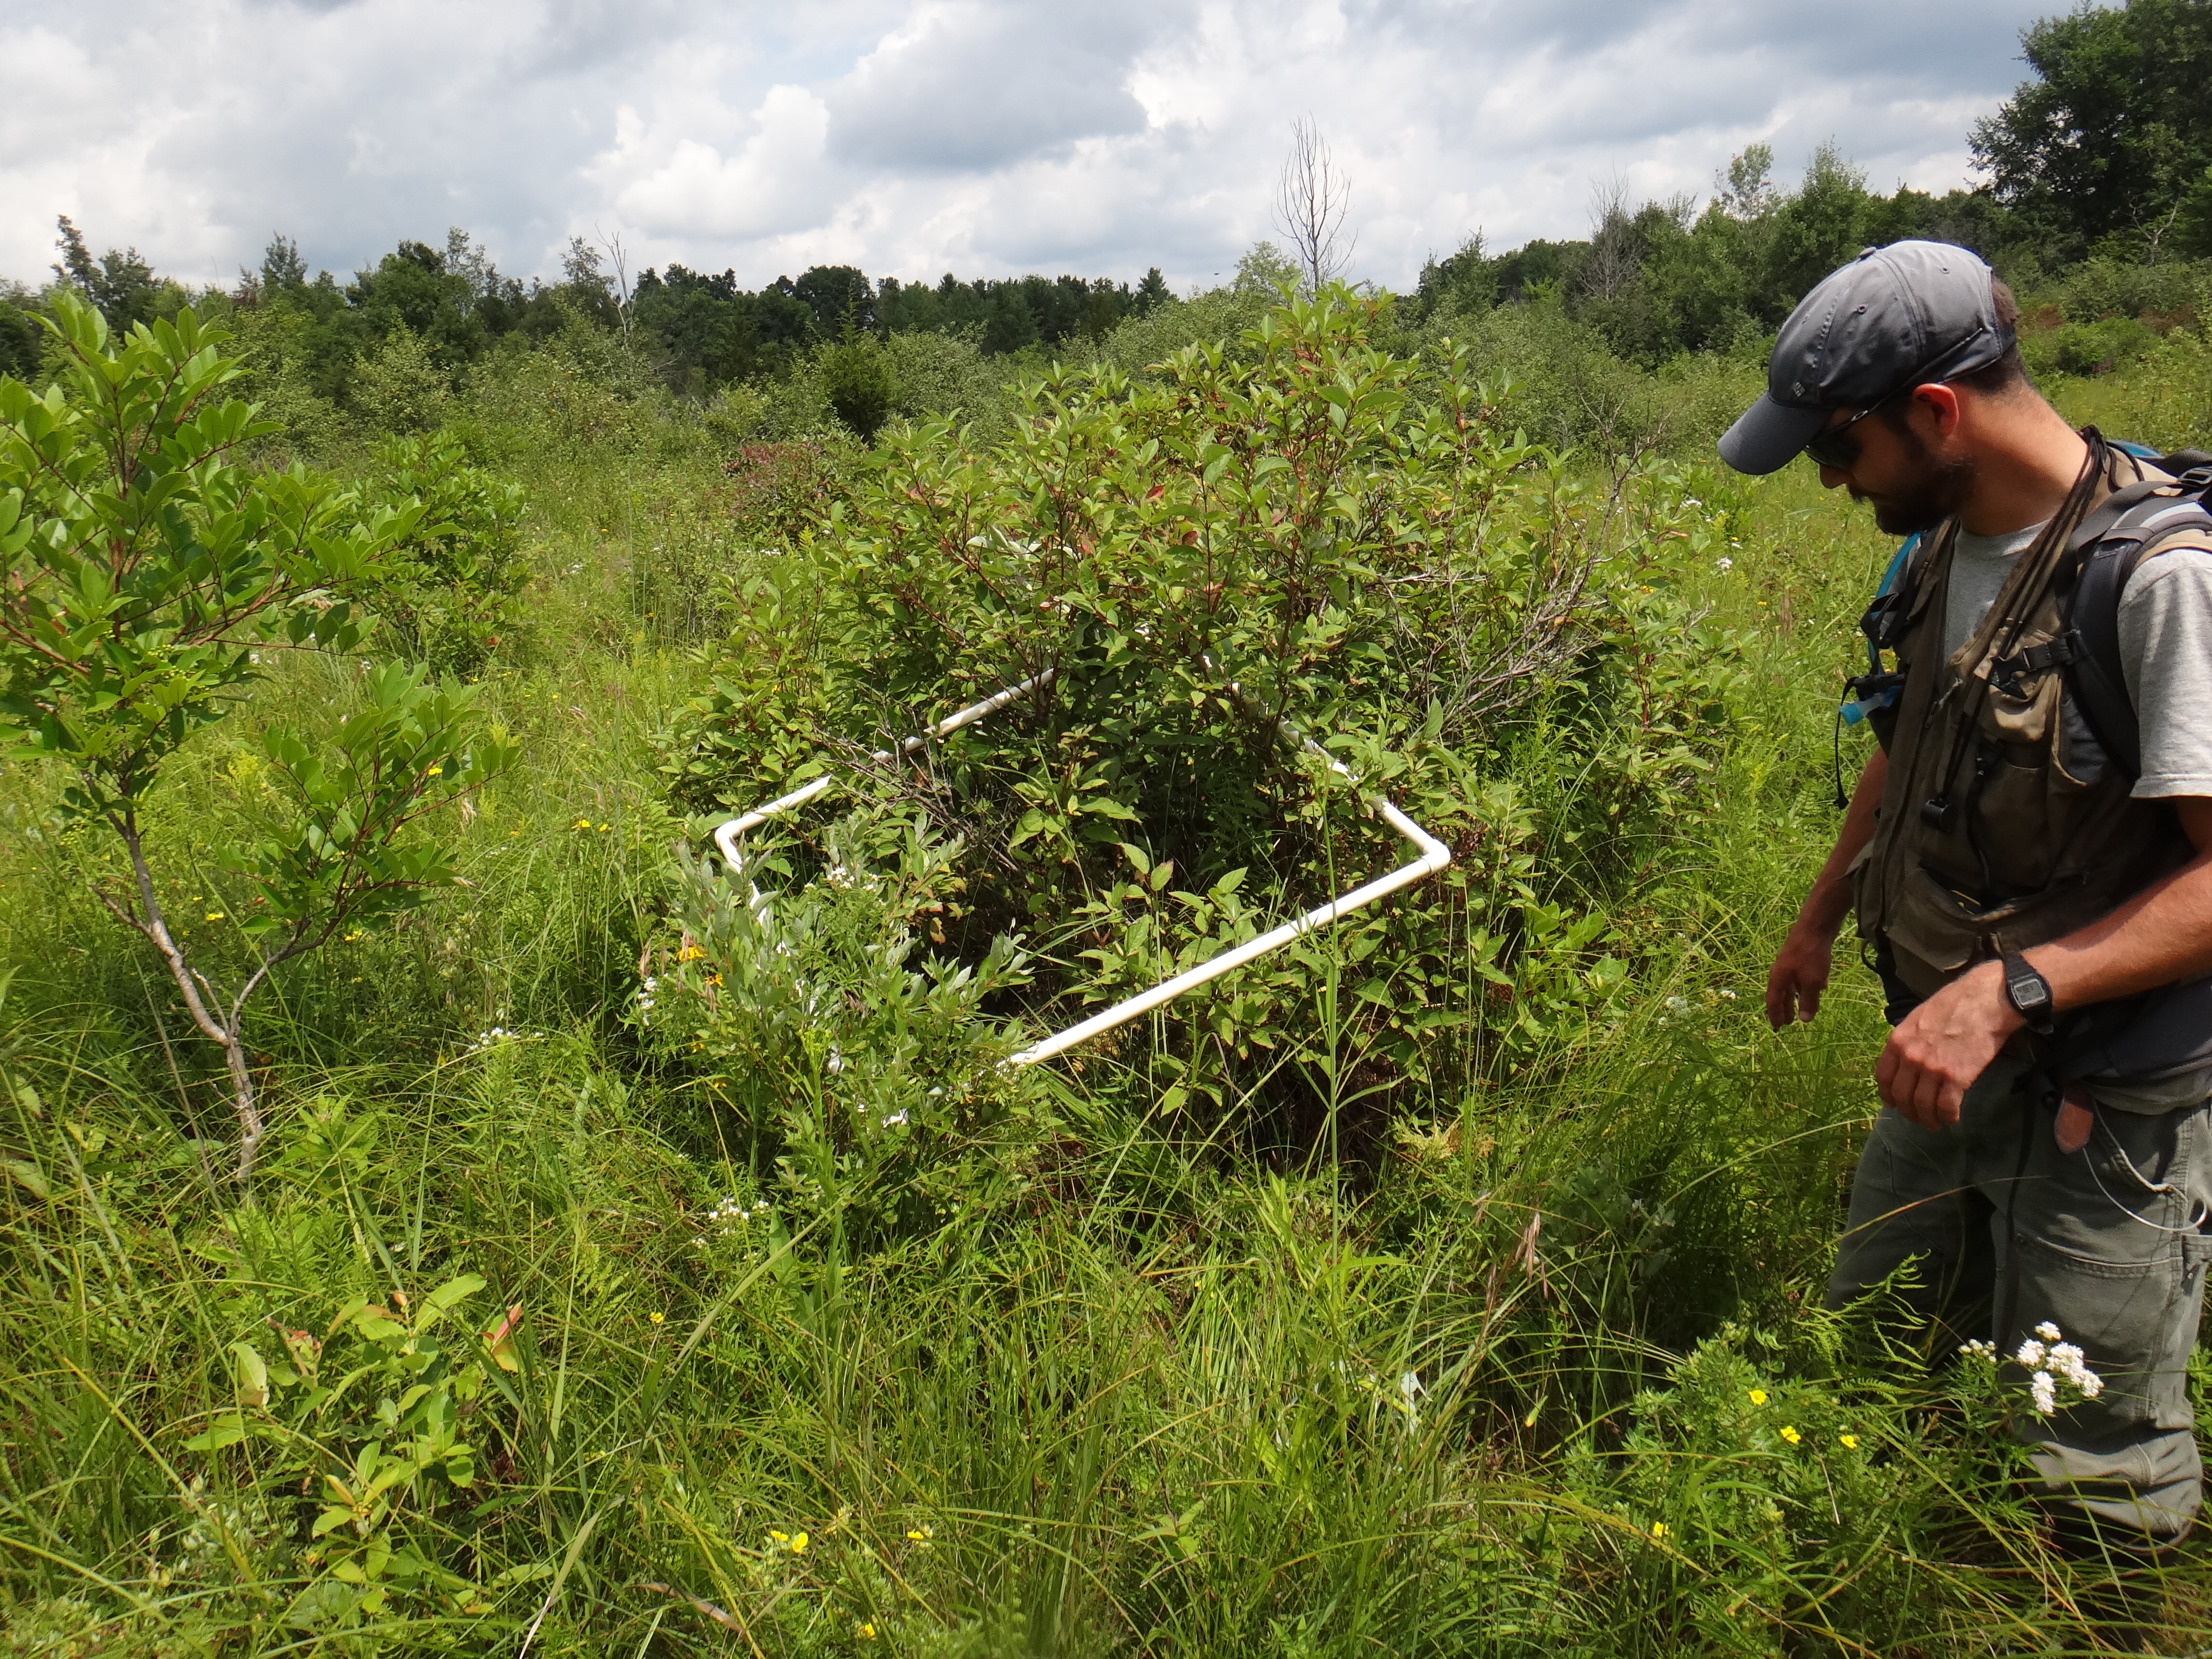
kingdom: Plantae
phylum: Tracheophyta
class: Magnoliopsida
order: Asterales
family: Asteraceae
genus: Symphyotrichum
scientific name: Symphyotrichum lanceolatum
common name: Panicled aster
